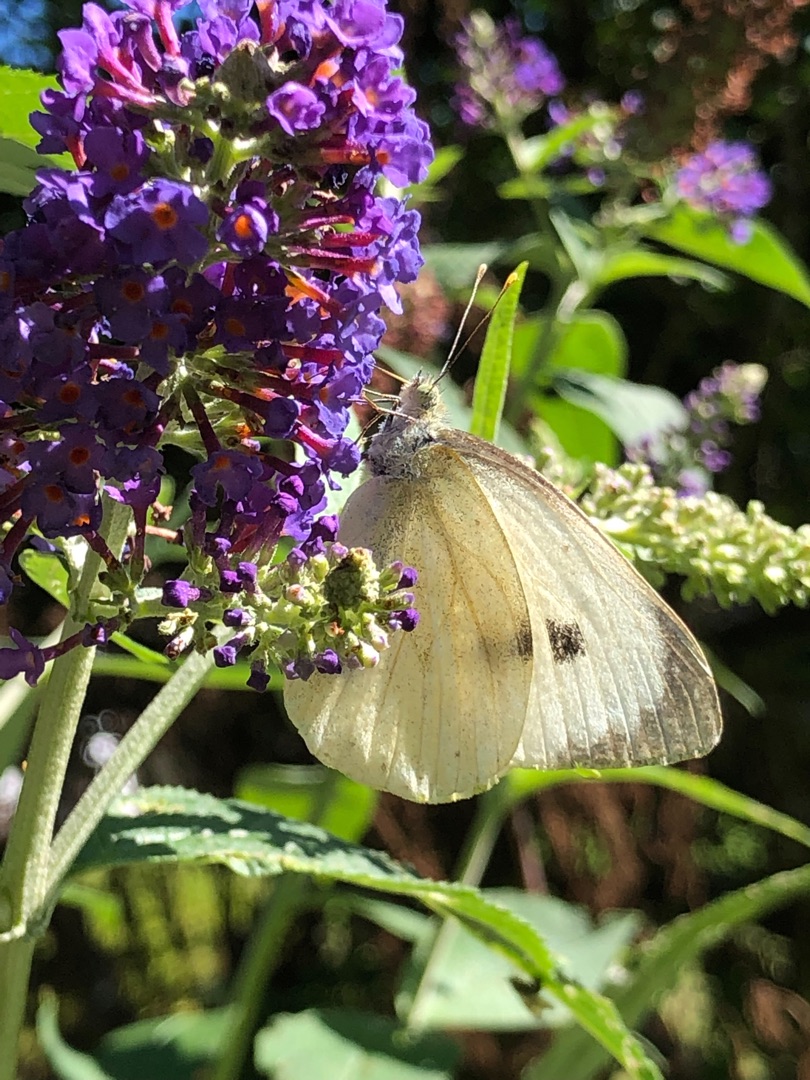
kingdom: Animalia
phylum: Arthropoda
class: Insecta
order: Lepidoptera
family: Pieridae
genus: Pieris
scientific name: Pieris brassicae
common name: Stor kålsommerfugl
